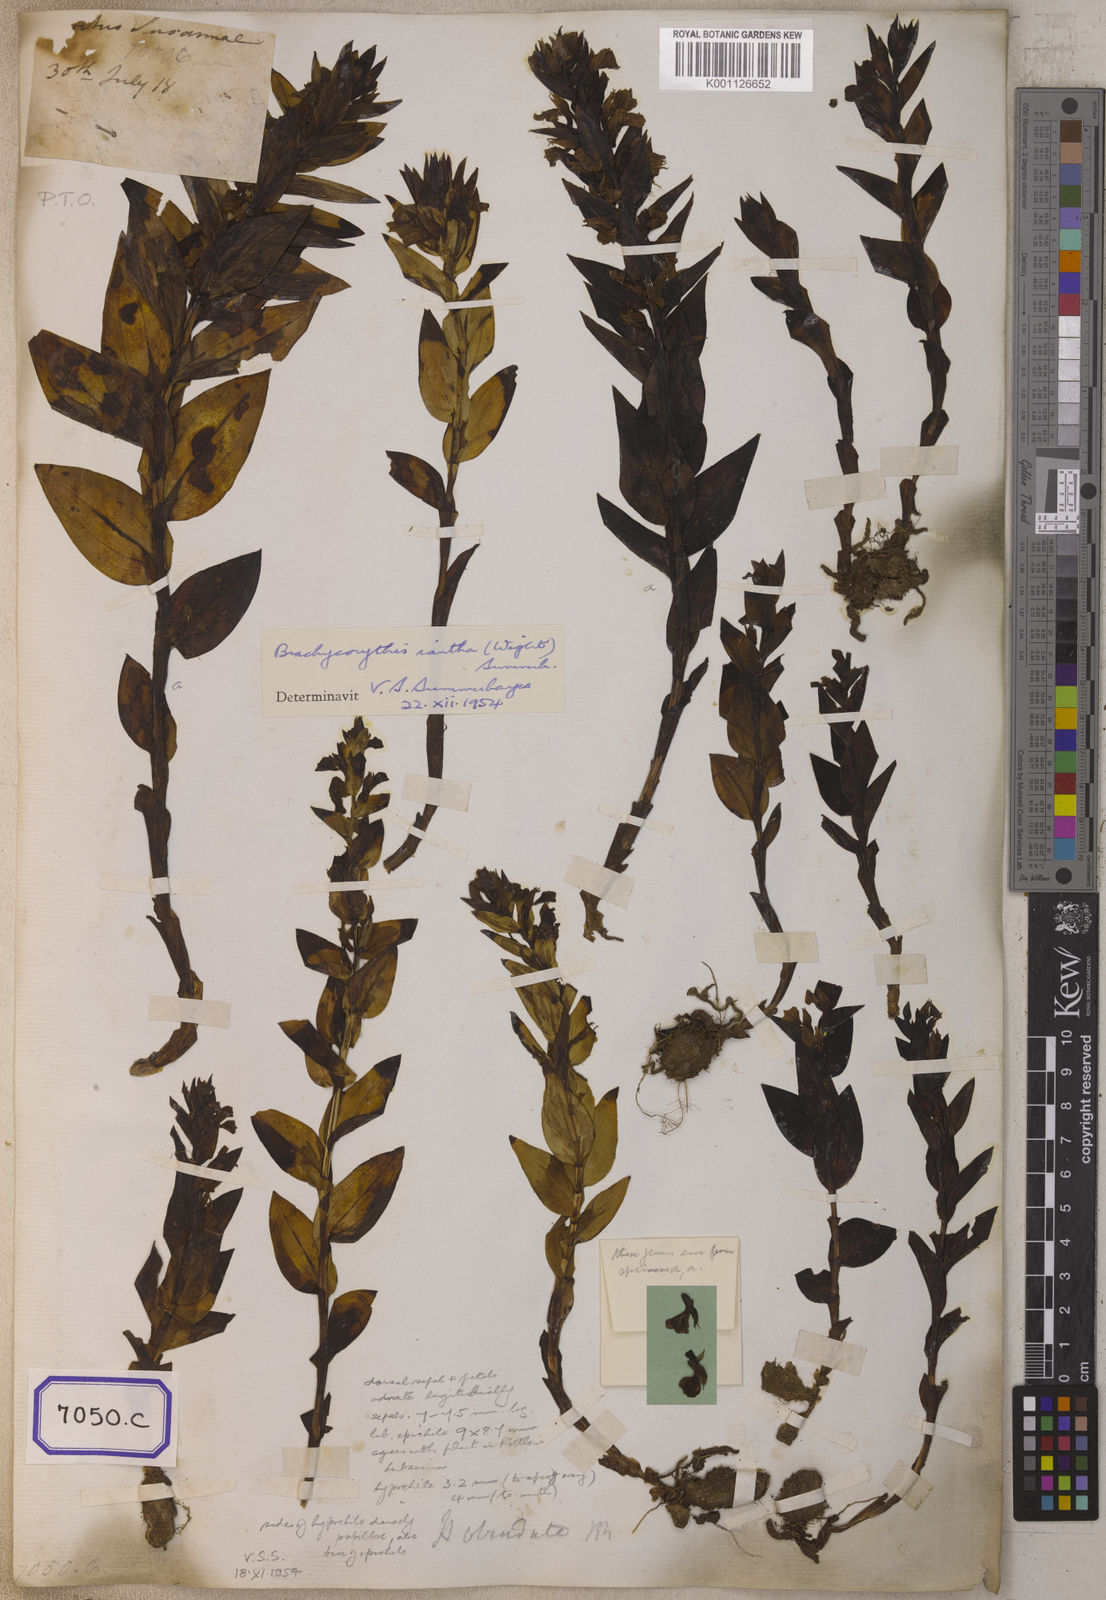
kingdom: Plantae
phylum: Tracheophyta
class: Liliopsida
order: Asparagales
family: Orchidaceae
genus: Platanthera
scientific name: Platanthera
